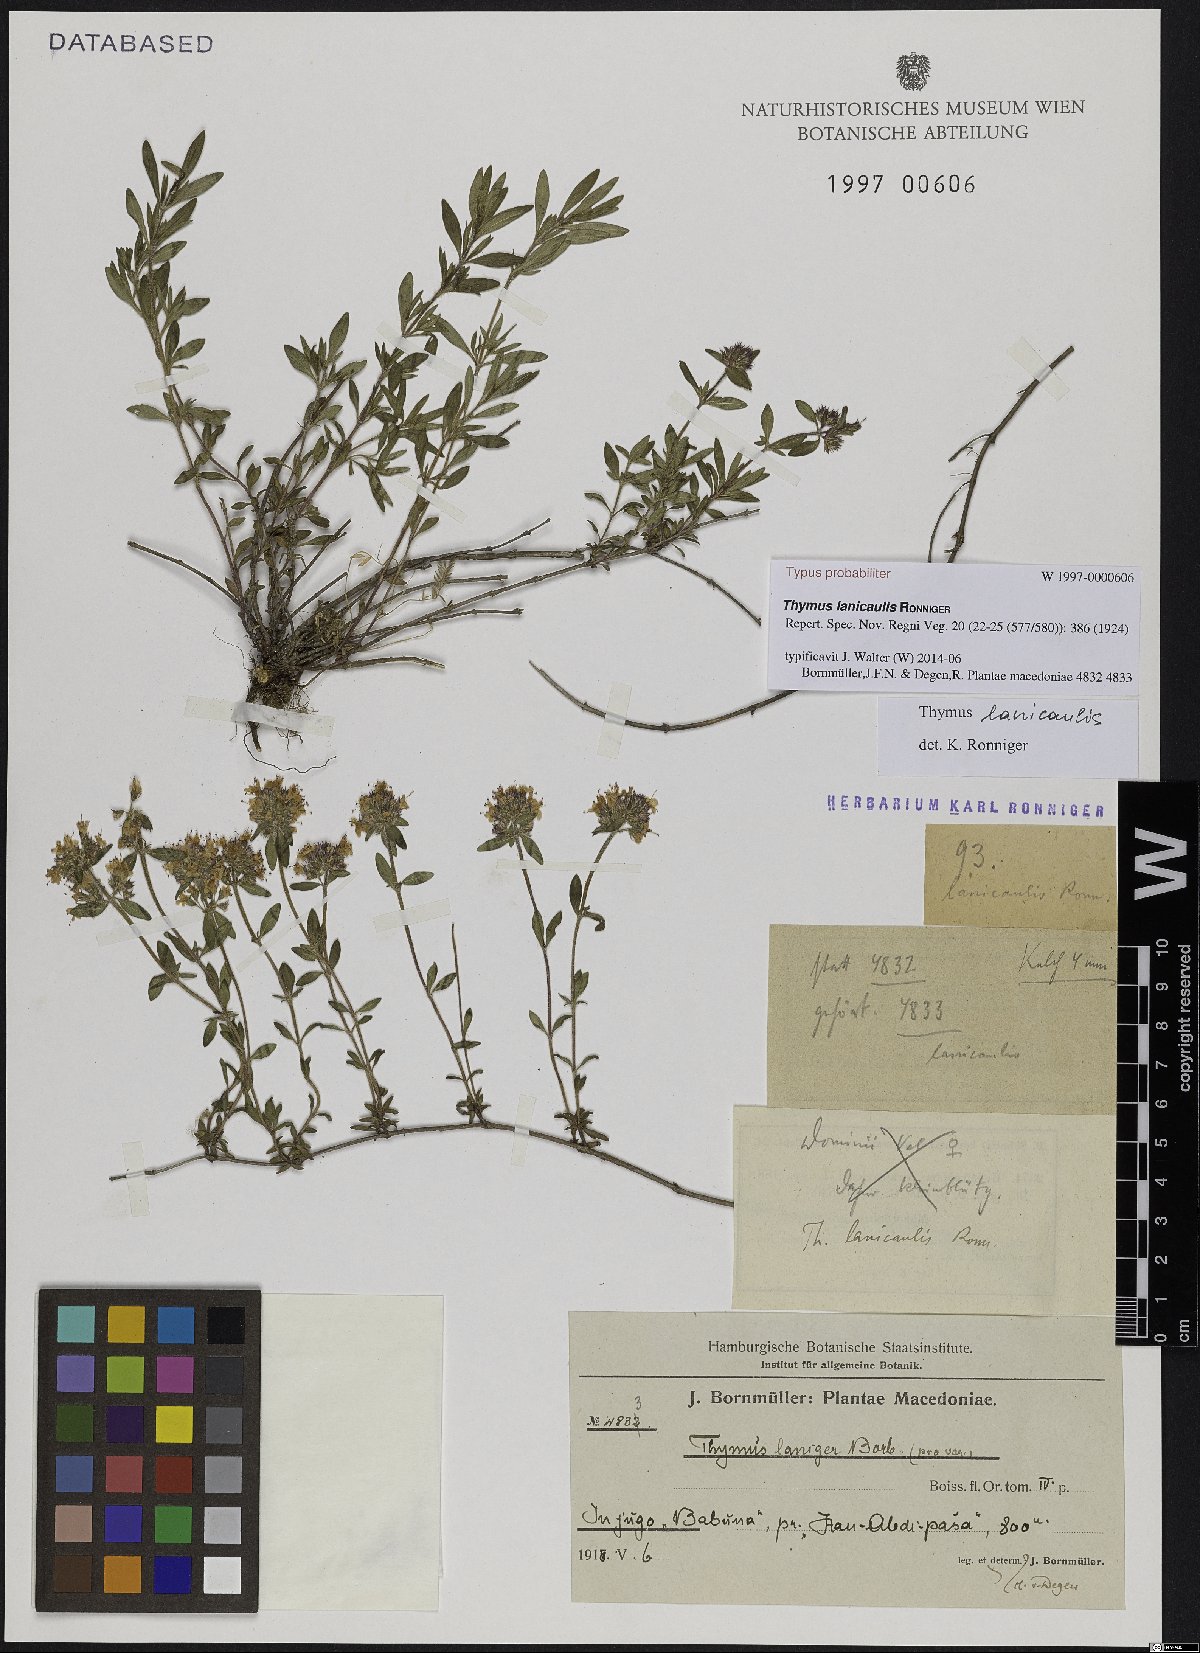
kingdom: Plantae
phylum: Tracheophyta
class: Magnoliopsida
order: Lamiales
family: Lamiaceae
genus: Thymus
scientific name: Thymus thracicus
